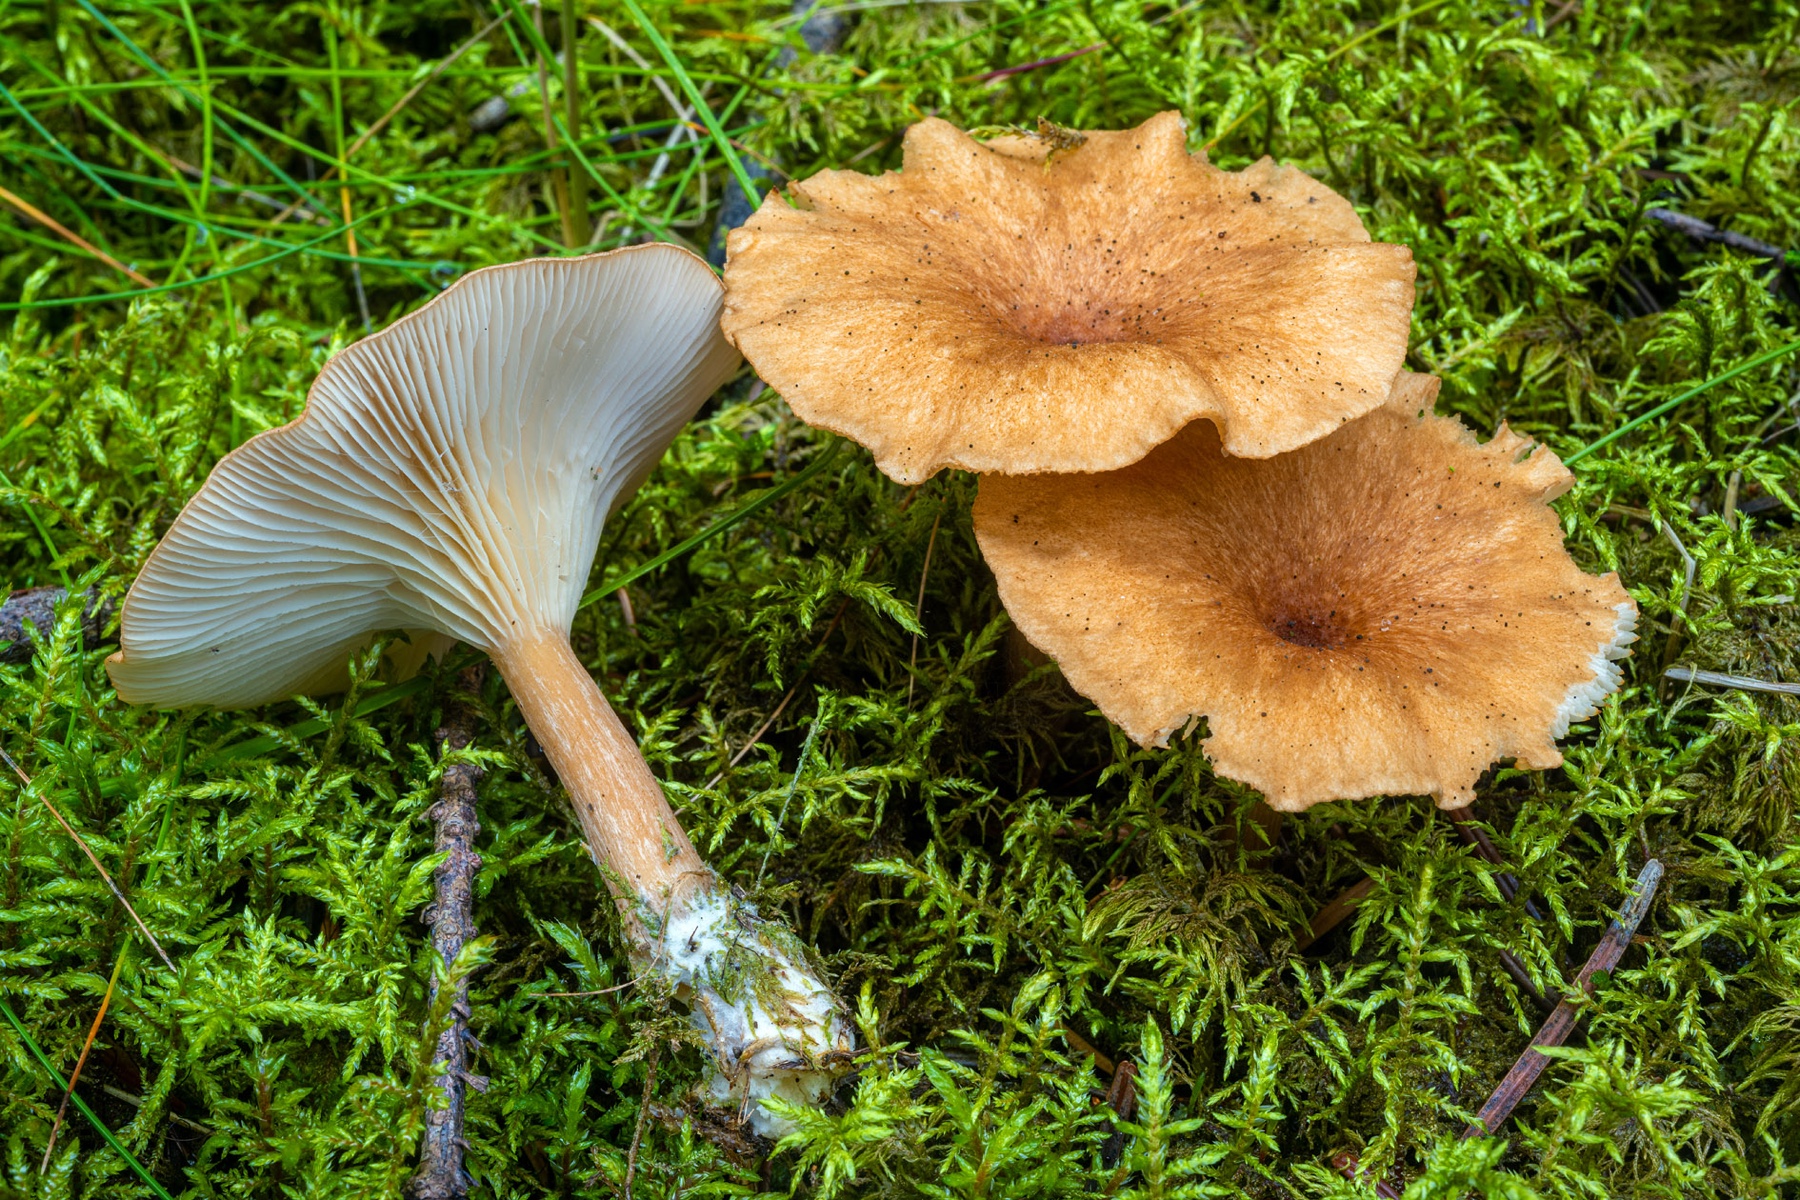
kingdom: Fungi
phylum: Basidiomycota
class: Agaricomycetes
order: Agaricales
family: Tricholomataceae
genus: Infundibulicybe
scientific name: Infundibulicybe squamulosa
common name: småskællet tragthat
